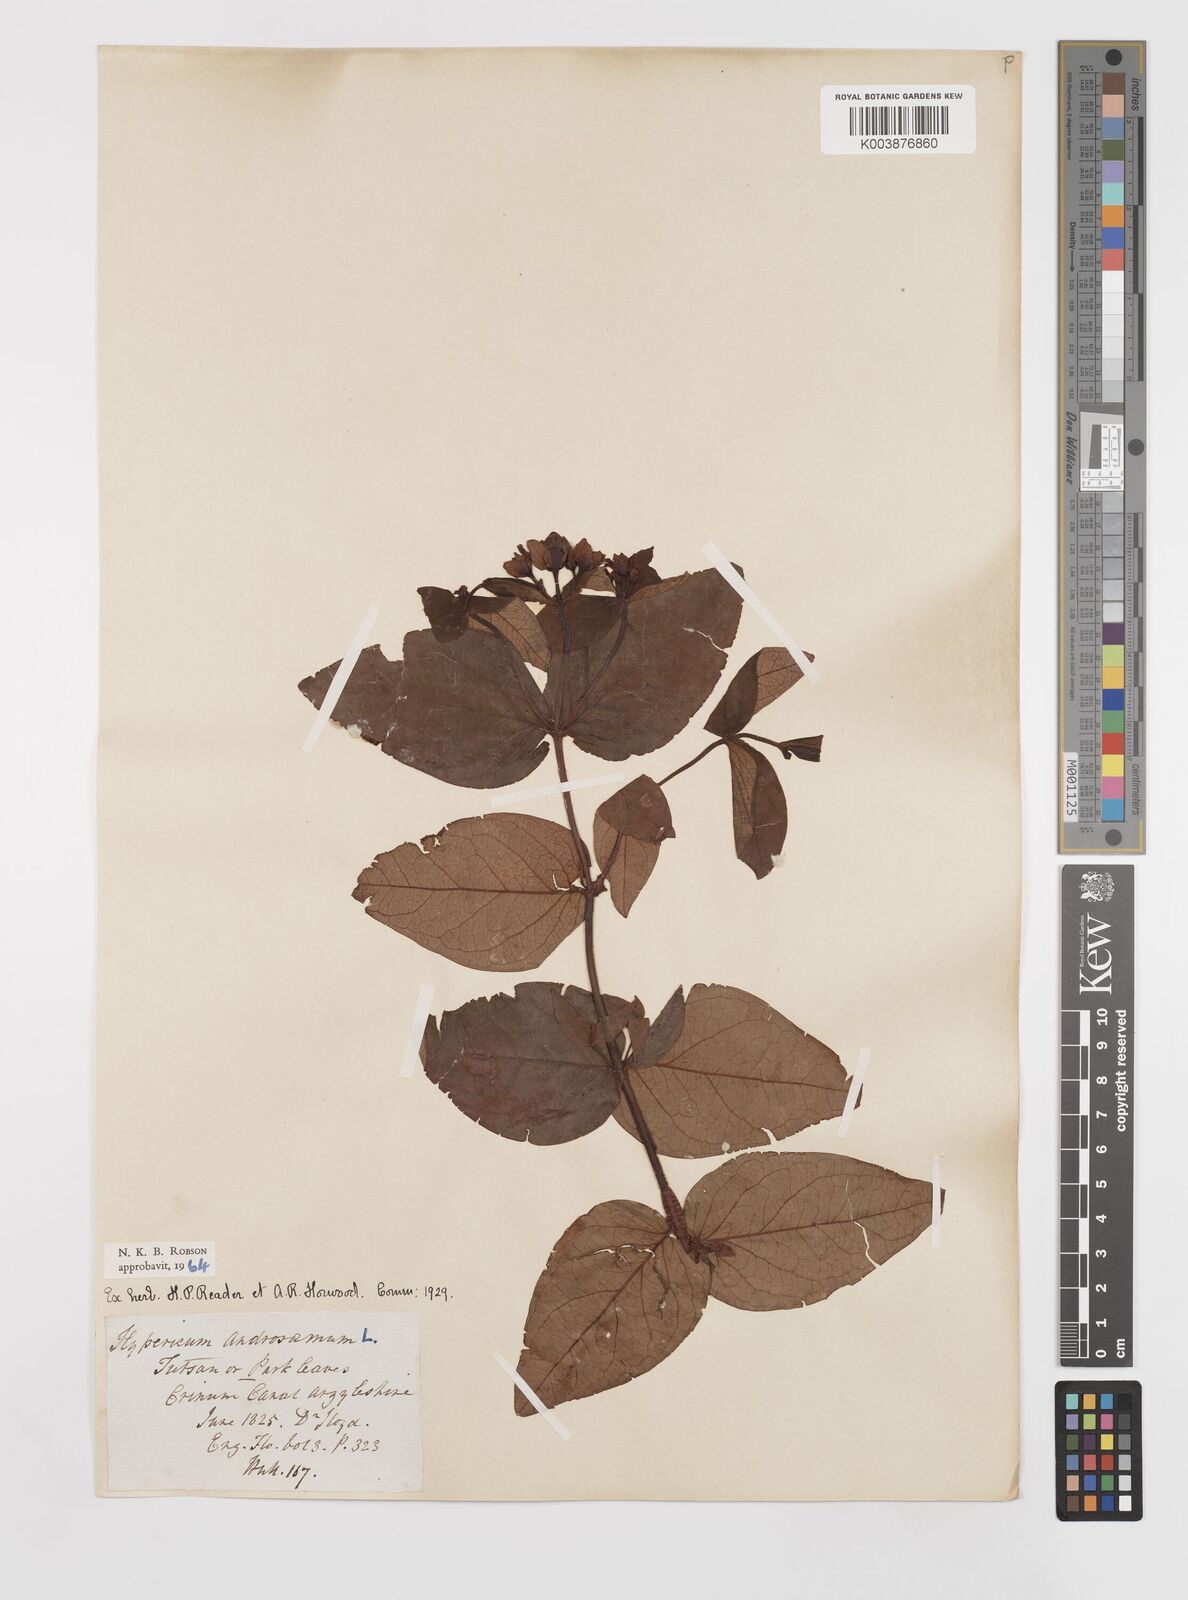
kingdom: Plantae
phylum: Tracheophyta
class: Magnoliopsida
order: Malpighiales
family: Hypericaceae
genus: Hypericum
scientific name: Hypericum androsaemum
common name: Sweet-amber
